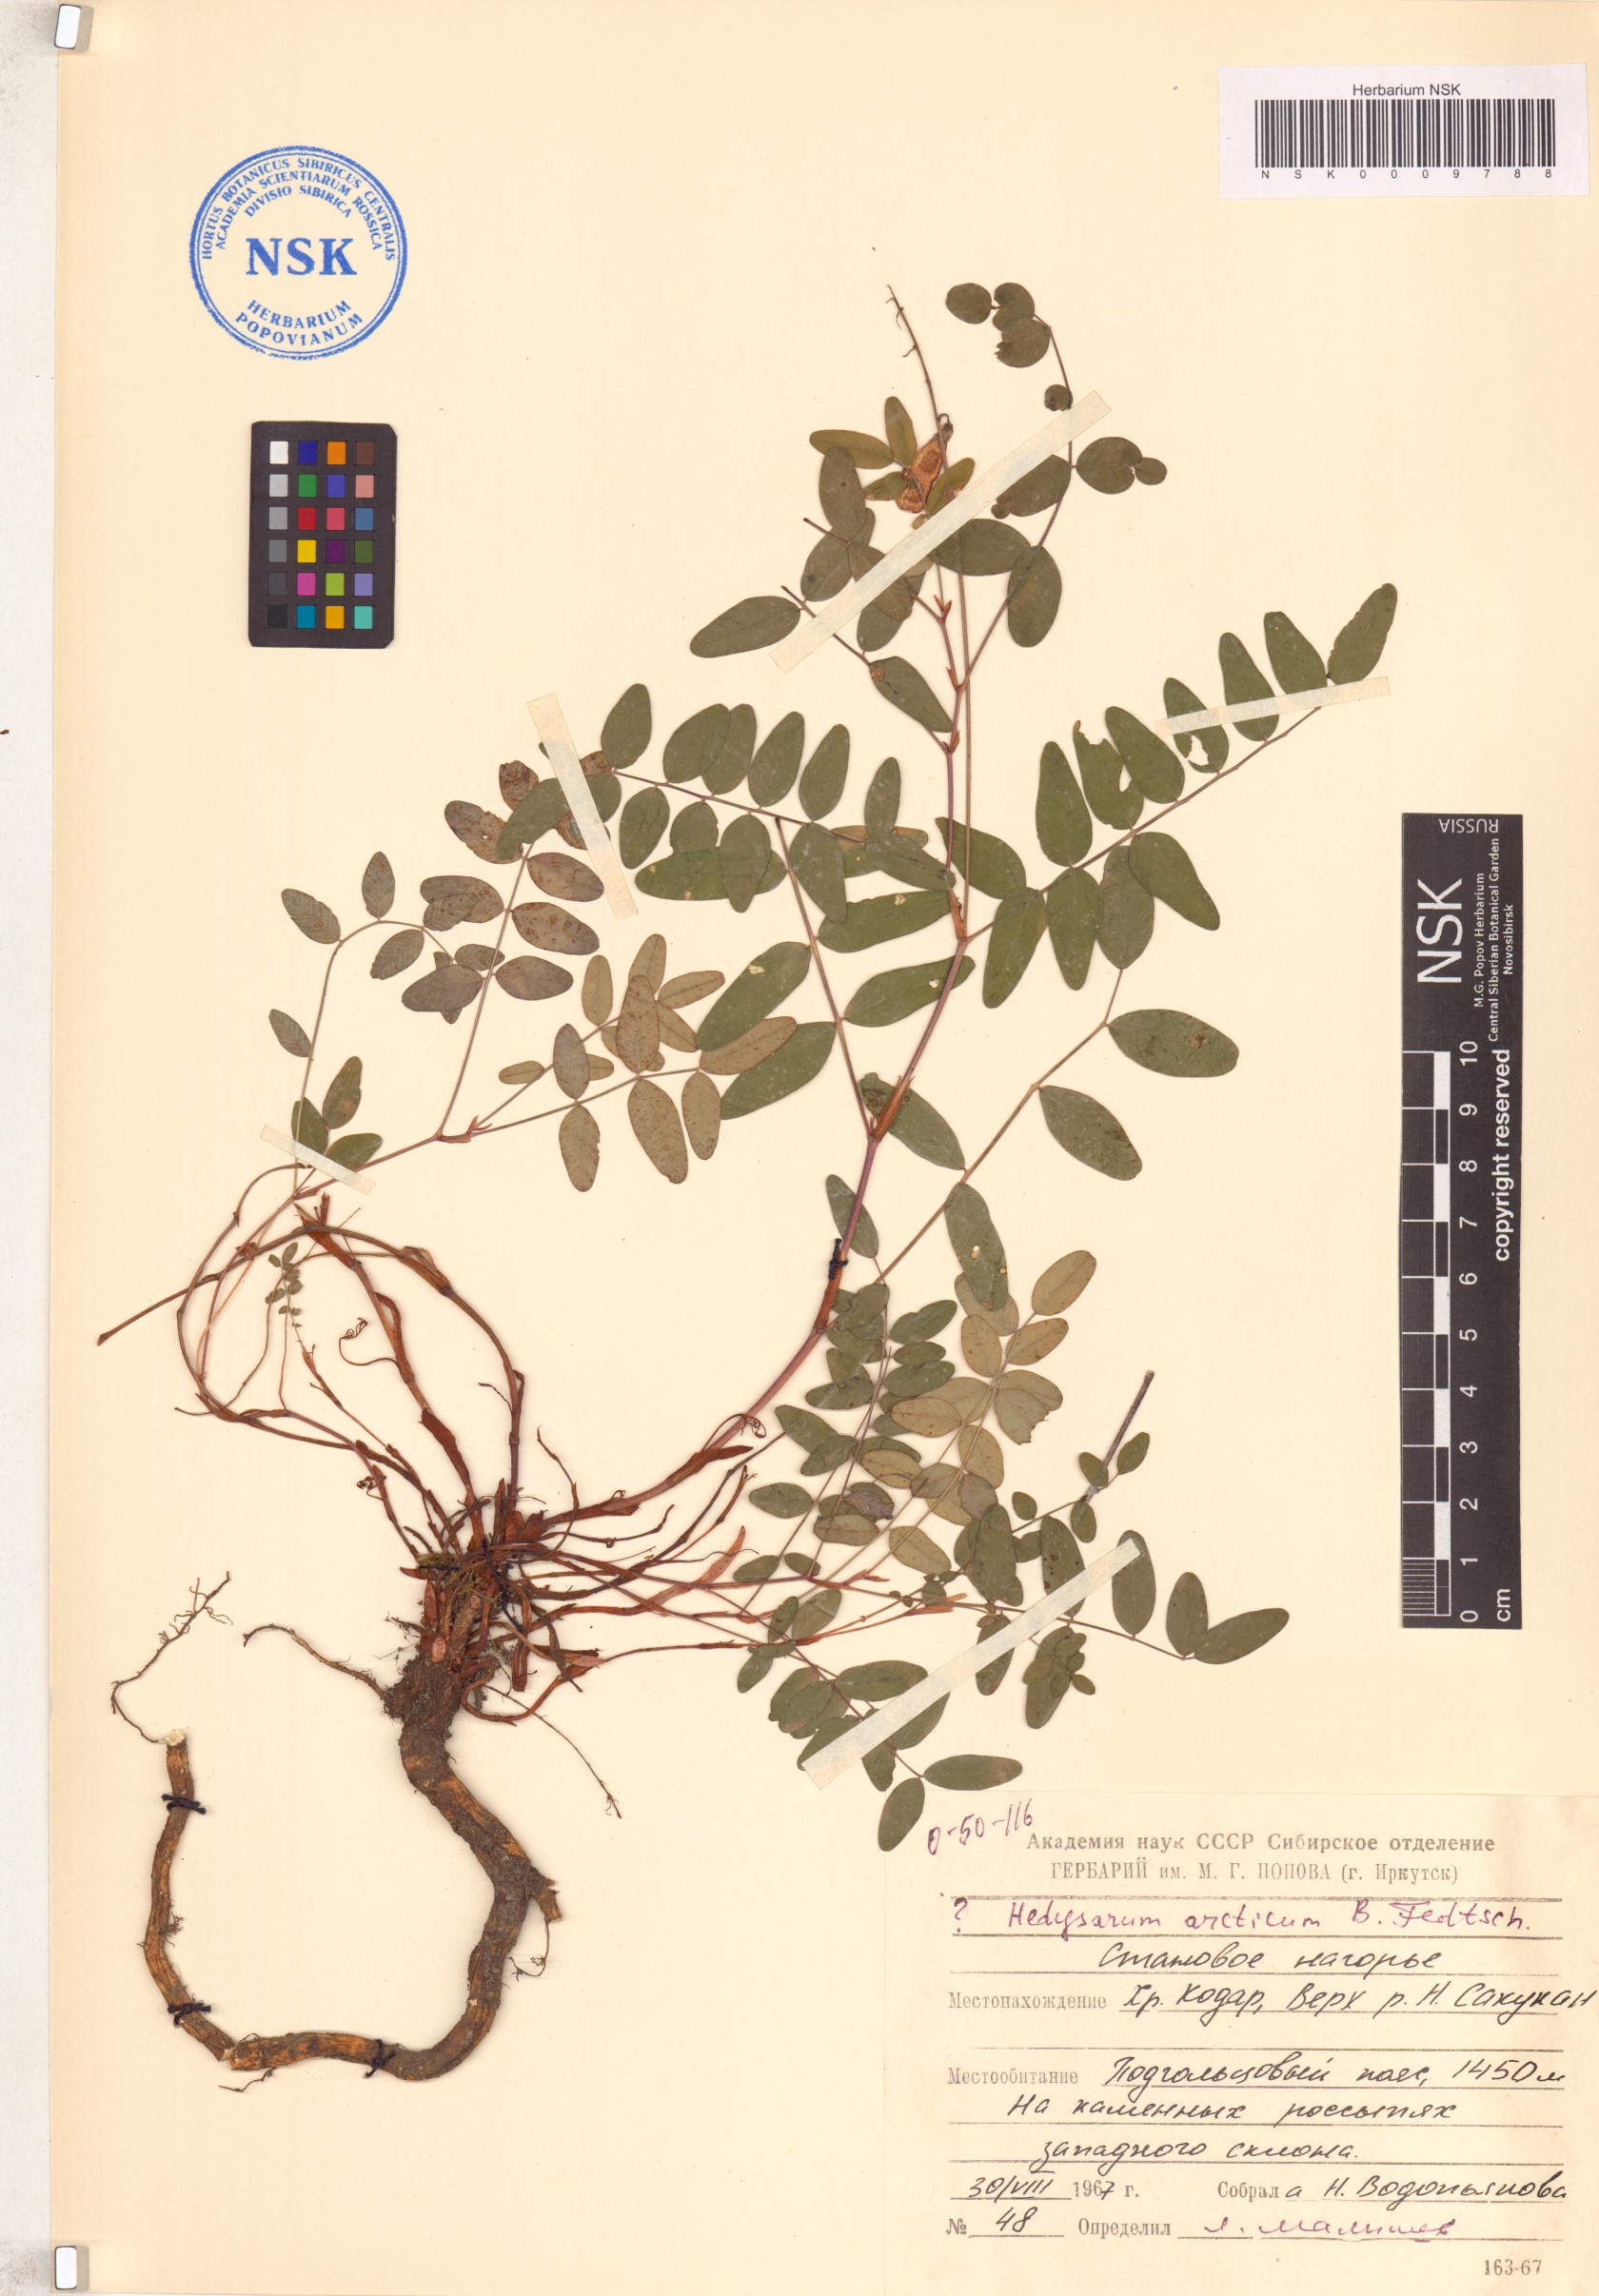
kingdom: Plantae
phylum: Tracheophyta
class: Magnoliopsida
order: Fabales
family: Fabaceae
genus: Hedysarum
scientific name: Hedysarum hedysaroides
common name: Alpine french-honeysuckle
